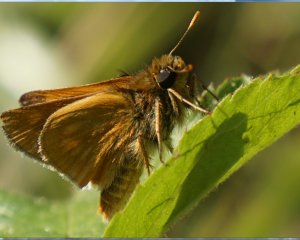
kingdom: Animalia
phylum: Arthropoda
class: Insecta
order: Lepidoptera
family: Hesperiidae
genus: Polites
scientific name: Polites
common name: Long Dash Skipper
